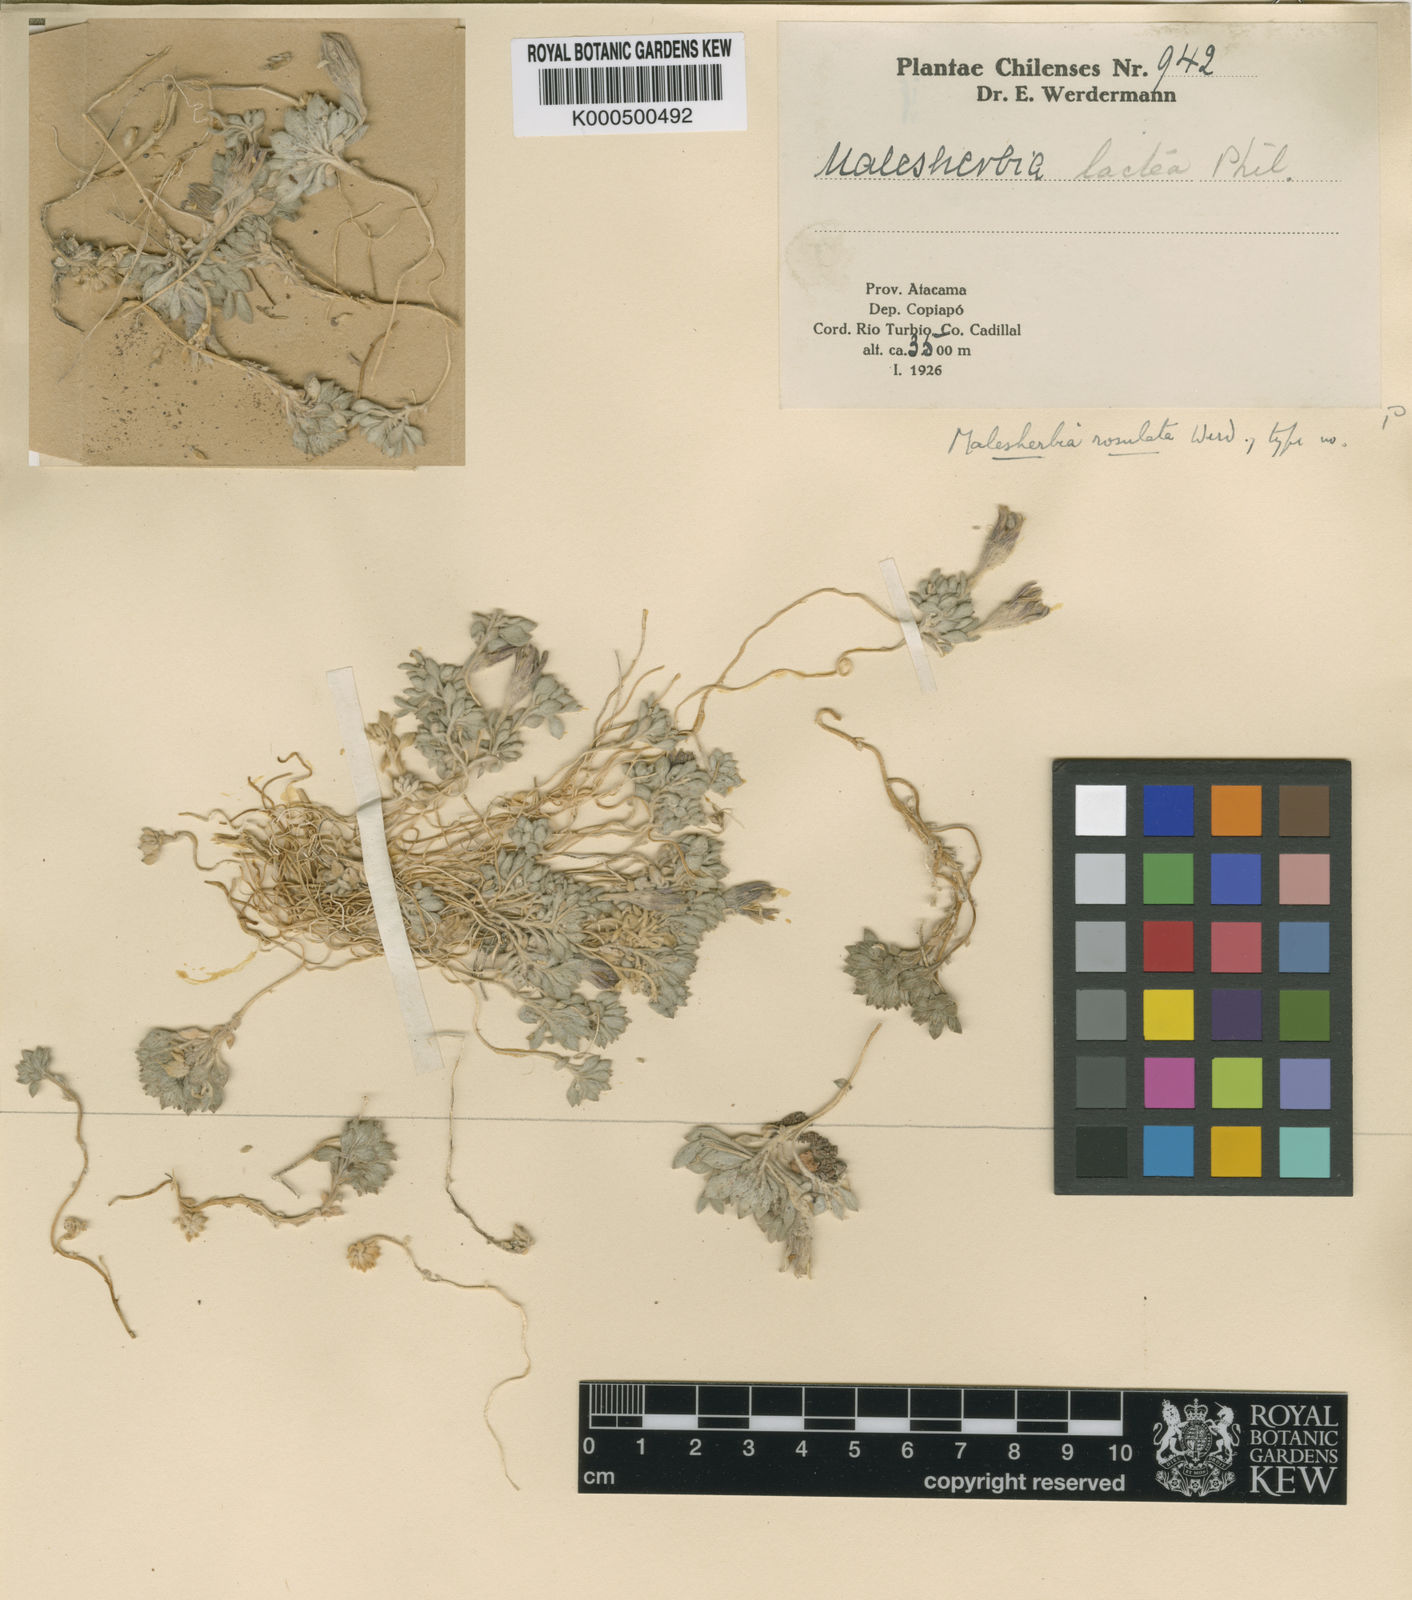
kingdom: Plantae
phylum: Tracheophyta
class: Magnoliopsida
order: Malpighiales
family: Malesherbiaceae
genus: Malesherbia
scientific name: Malesherbia lactea
